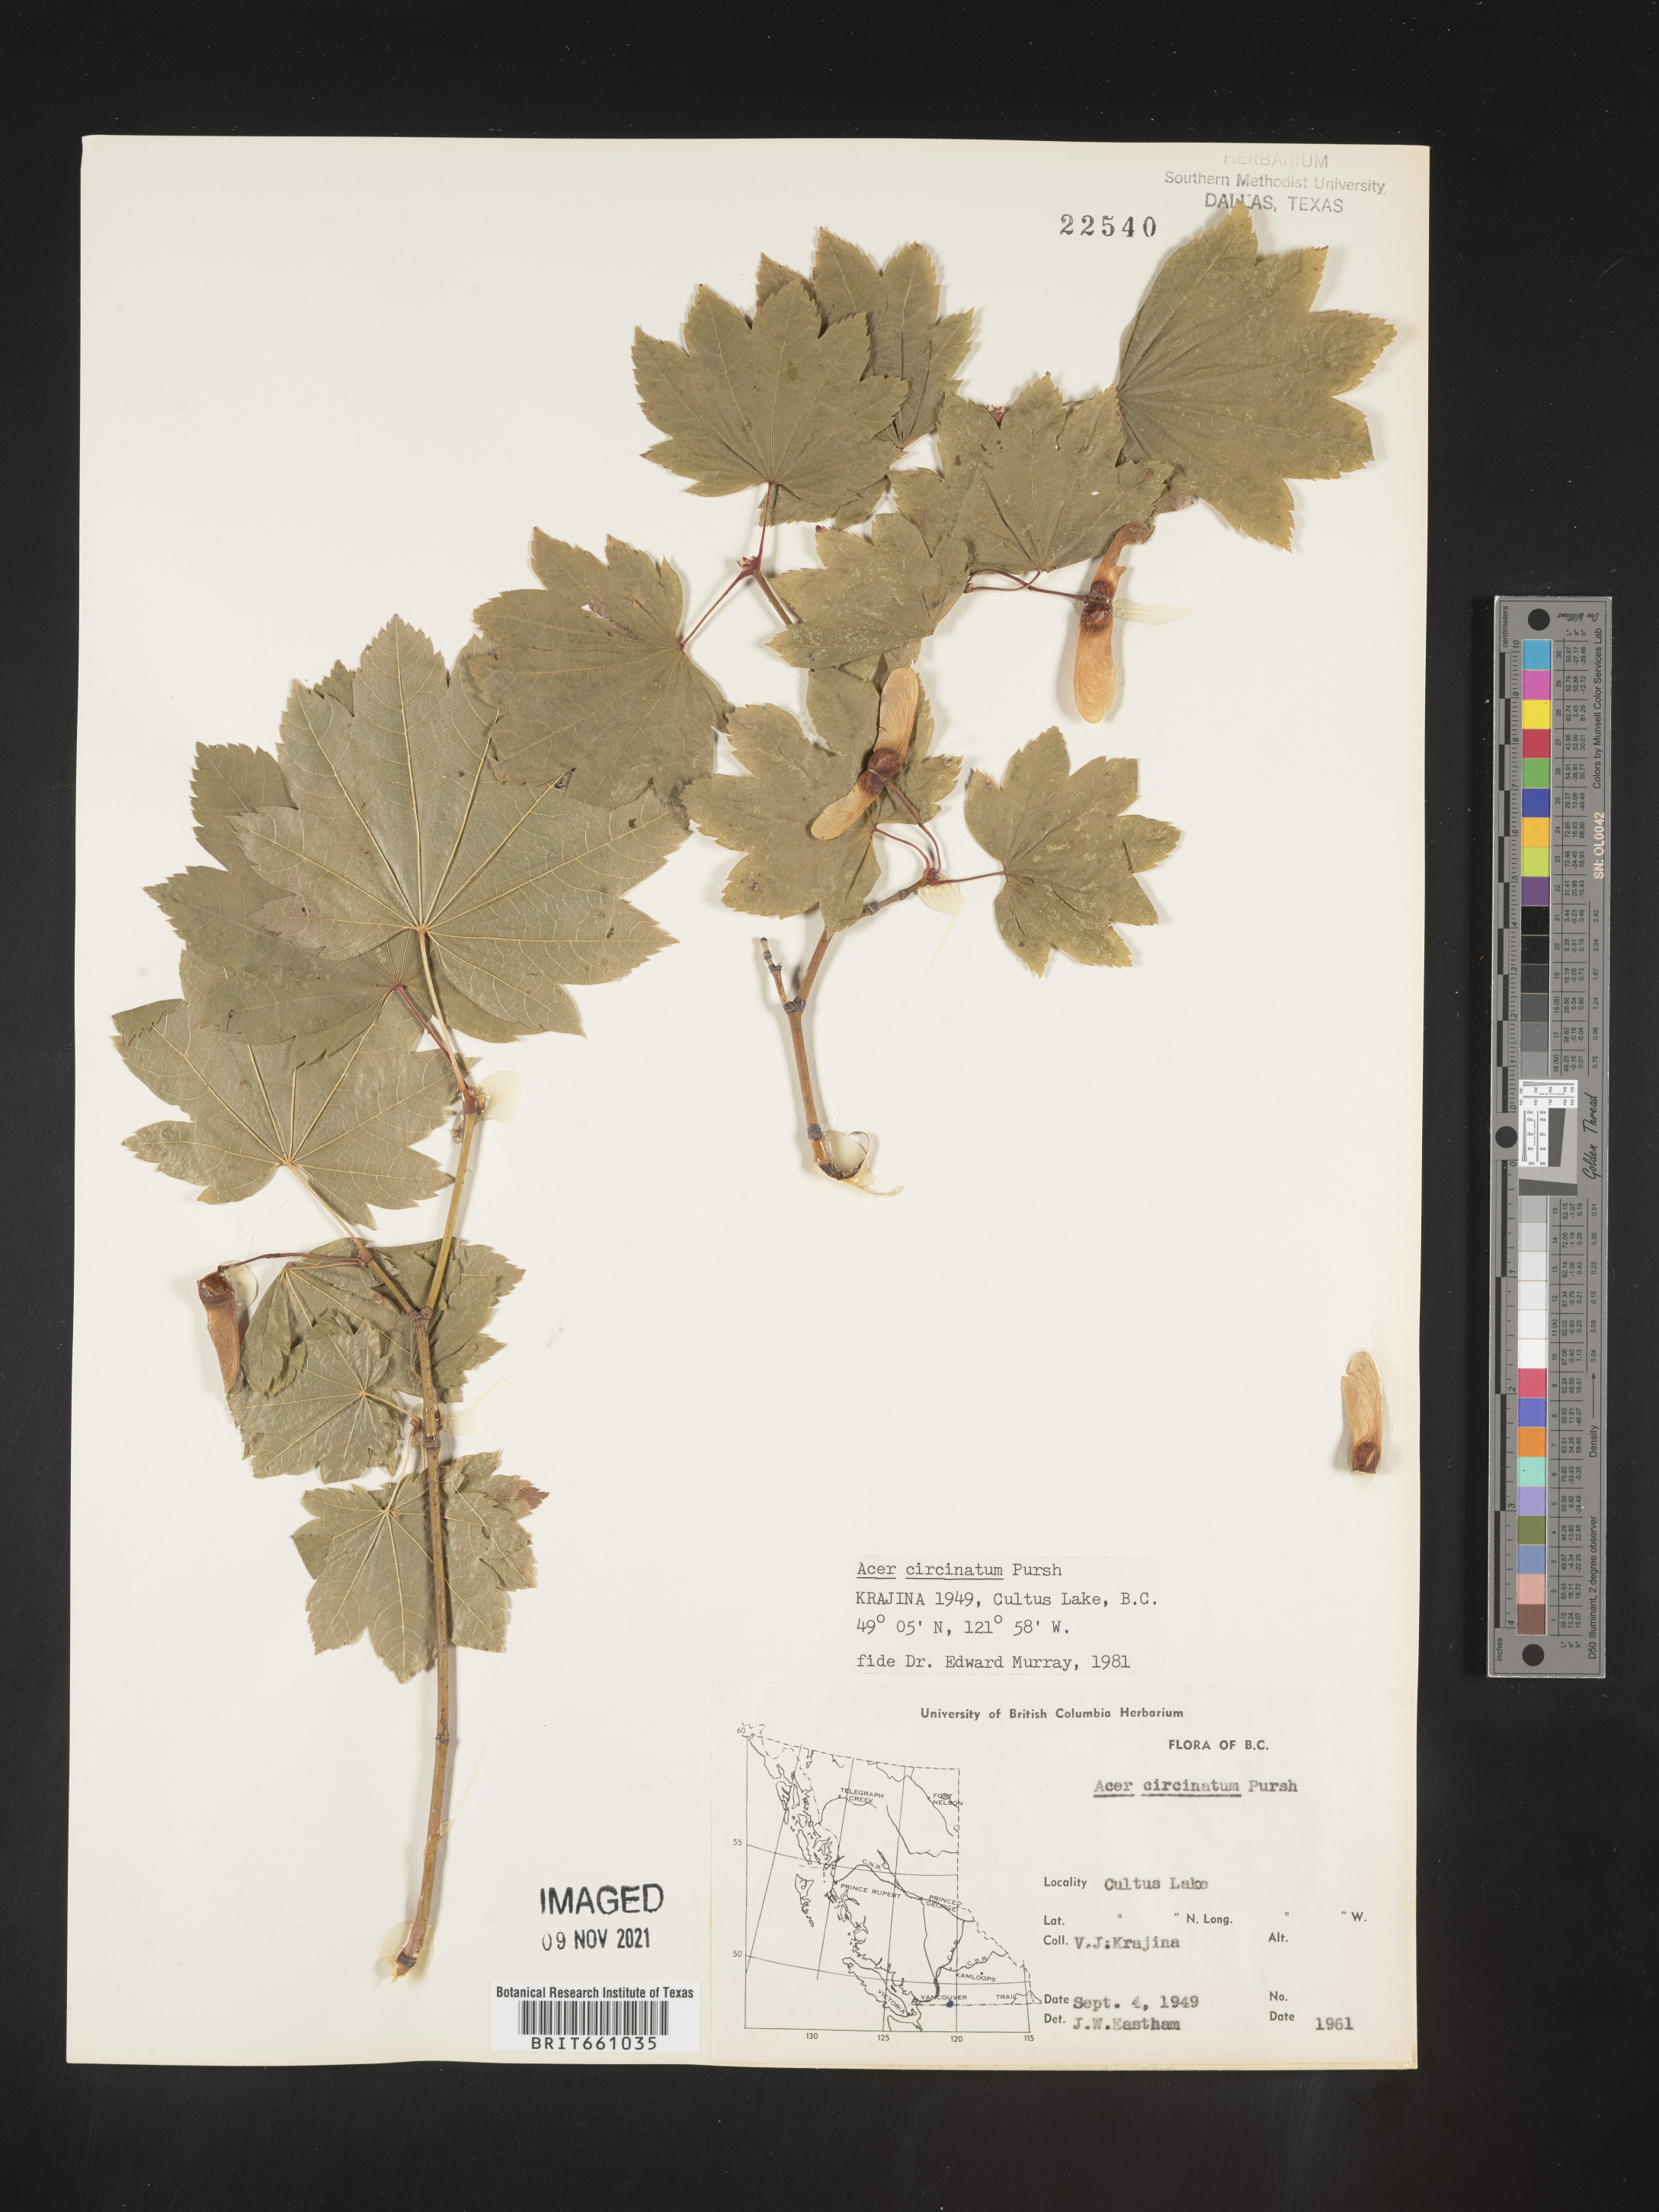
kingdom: Plantae
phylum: Tracheophyta
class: Magnoliopsida
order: Sapindales
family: Sapindaceae
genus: Acer
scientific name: Acer circinatum
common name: Vine maple
